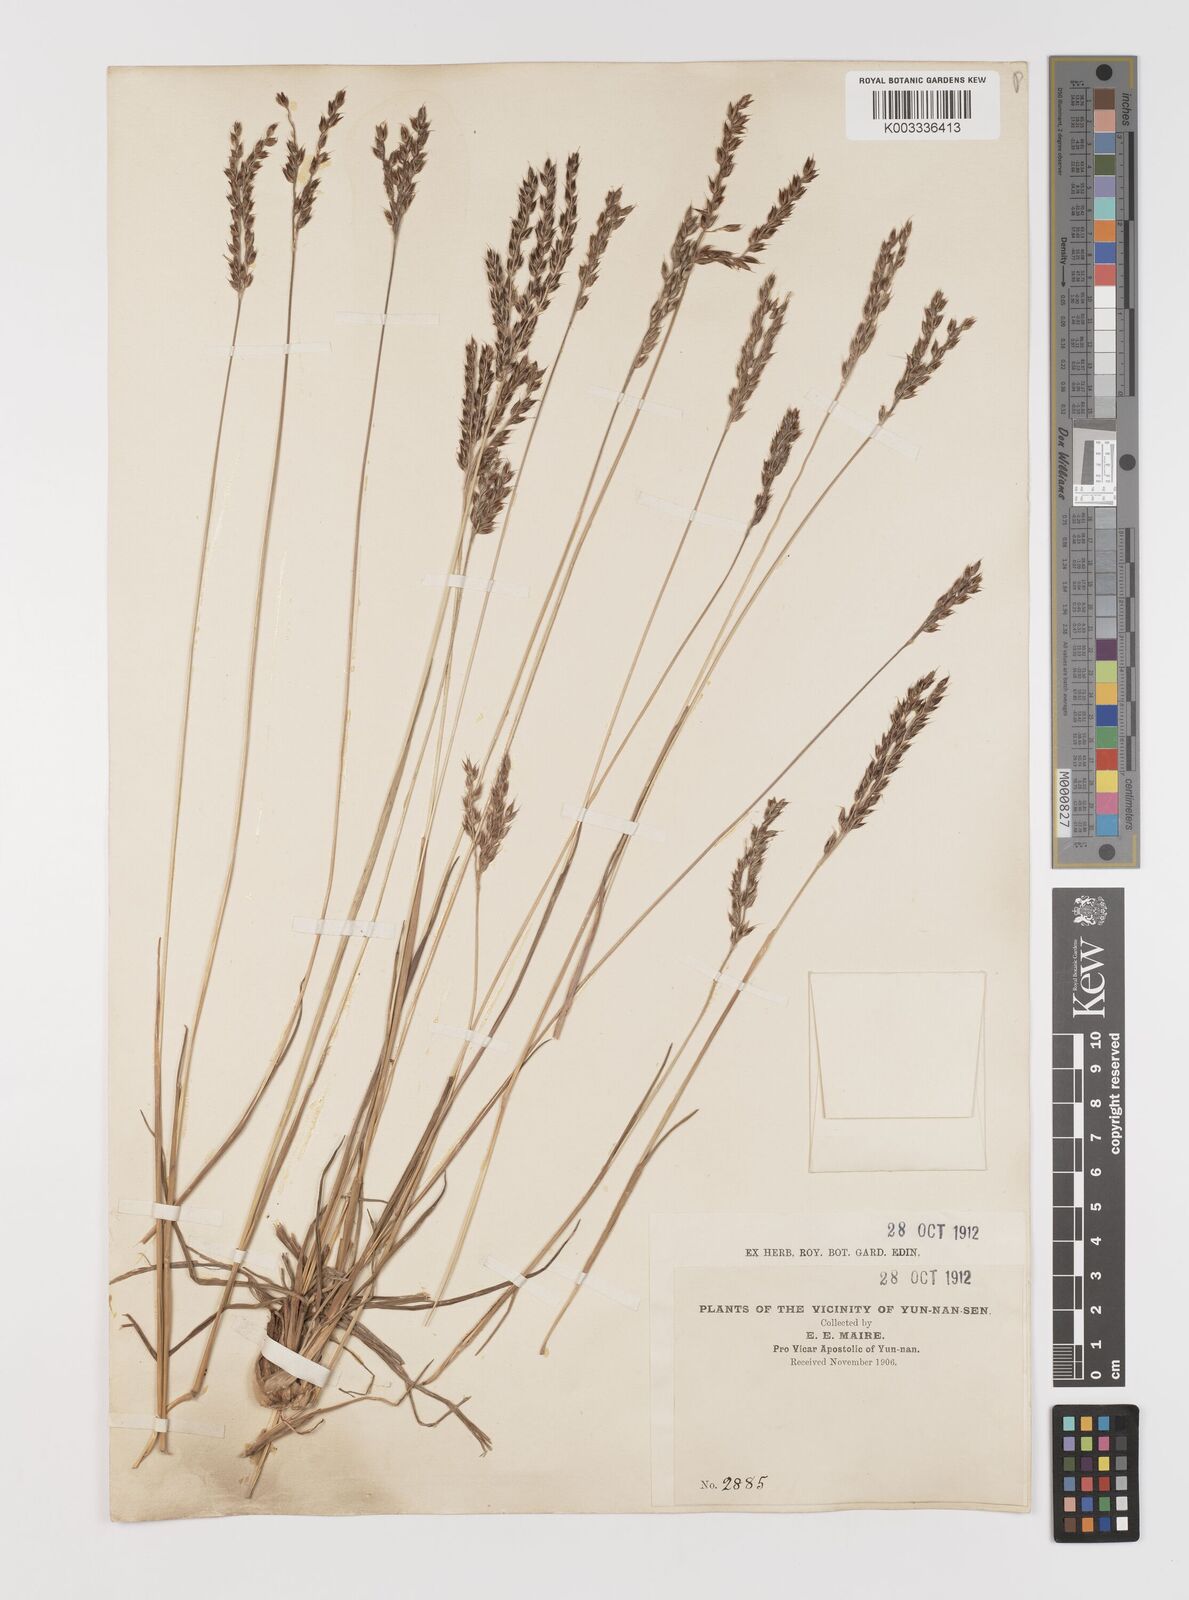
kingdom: Plantae
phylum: Tracheophyta
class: Liliopsida
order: Poales
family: Poaceae
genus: Alloteropsis
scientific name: Alloteropsis semialata
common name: Cockatoo grass
